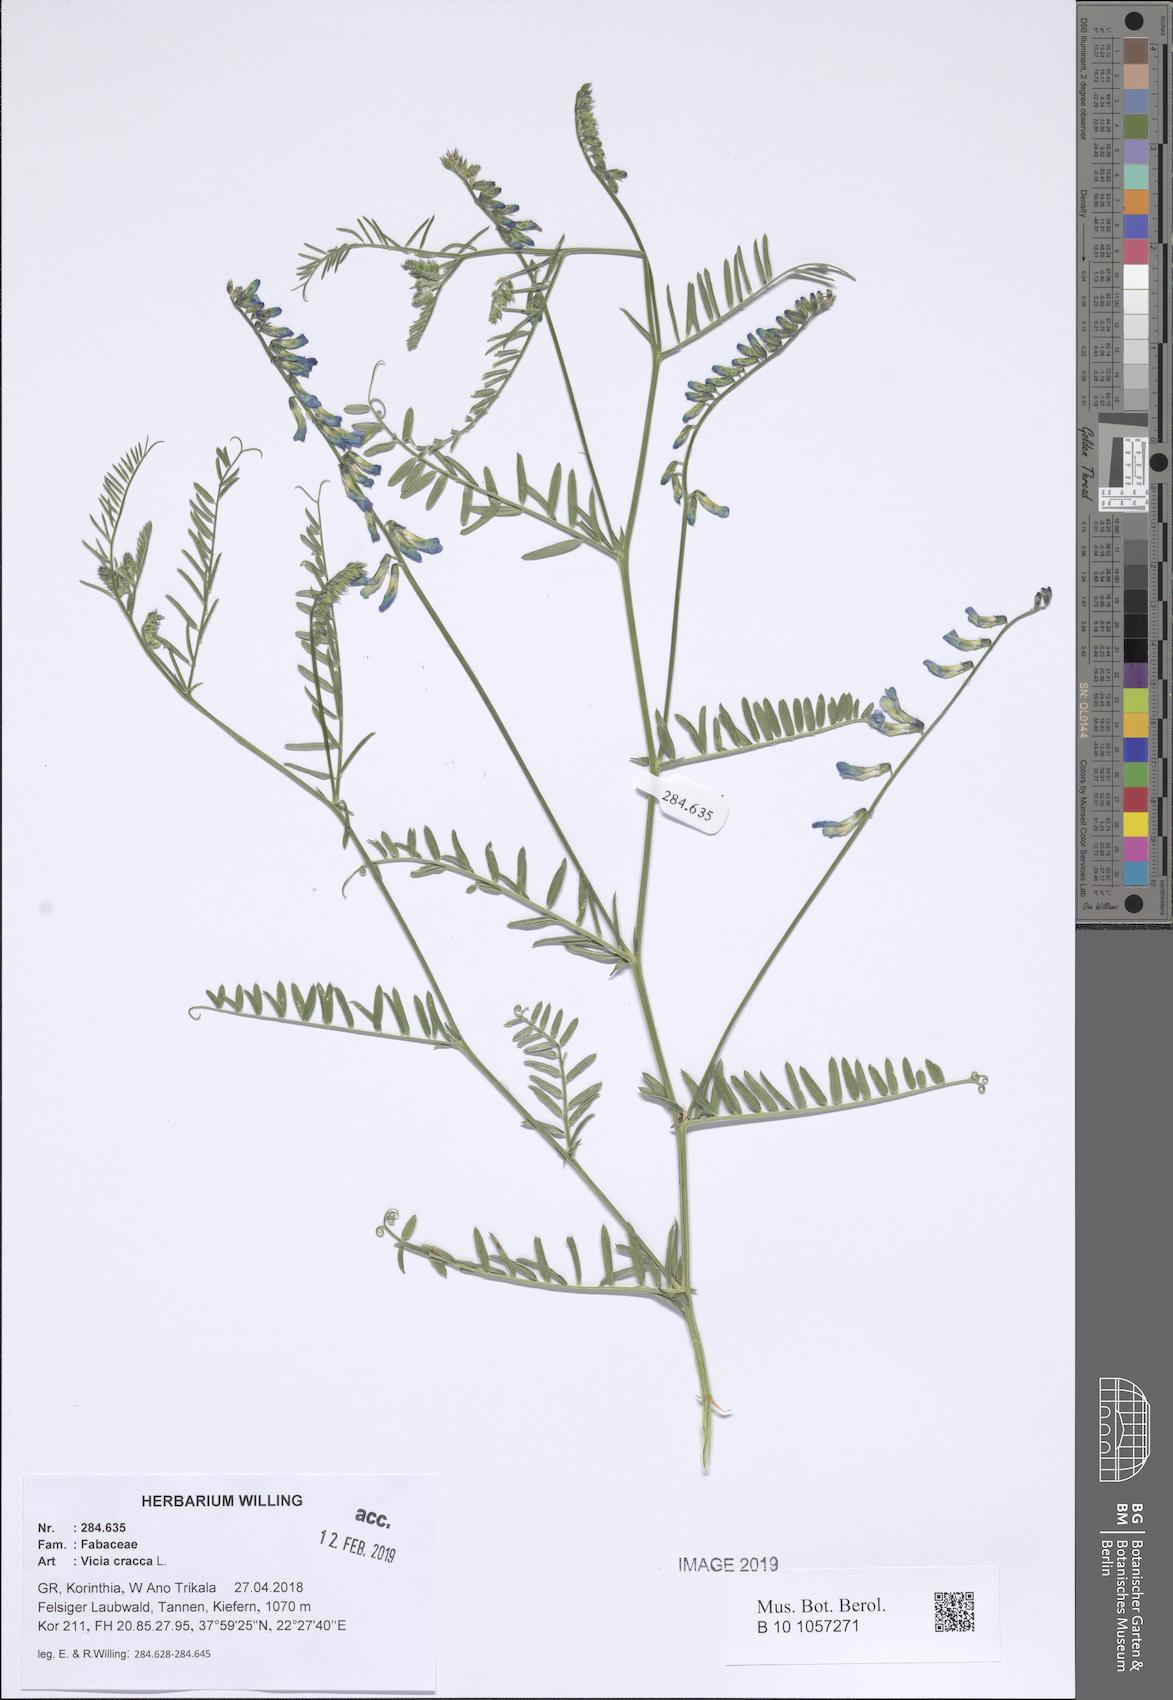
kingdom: Plantae
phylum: Tracheophyta
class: Magnoliopsida
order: Fabales
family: Fabaceae
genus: Vicia
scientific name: Vicia cracca
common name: Bird vetch
